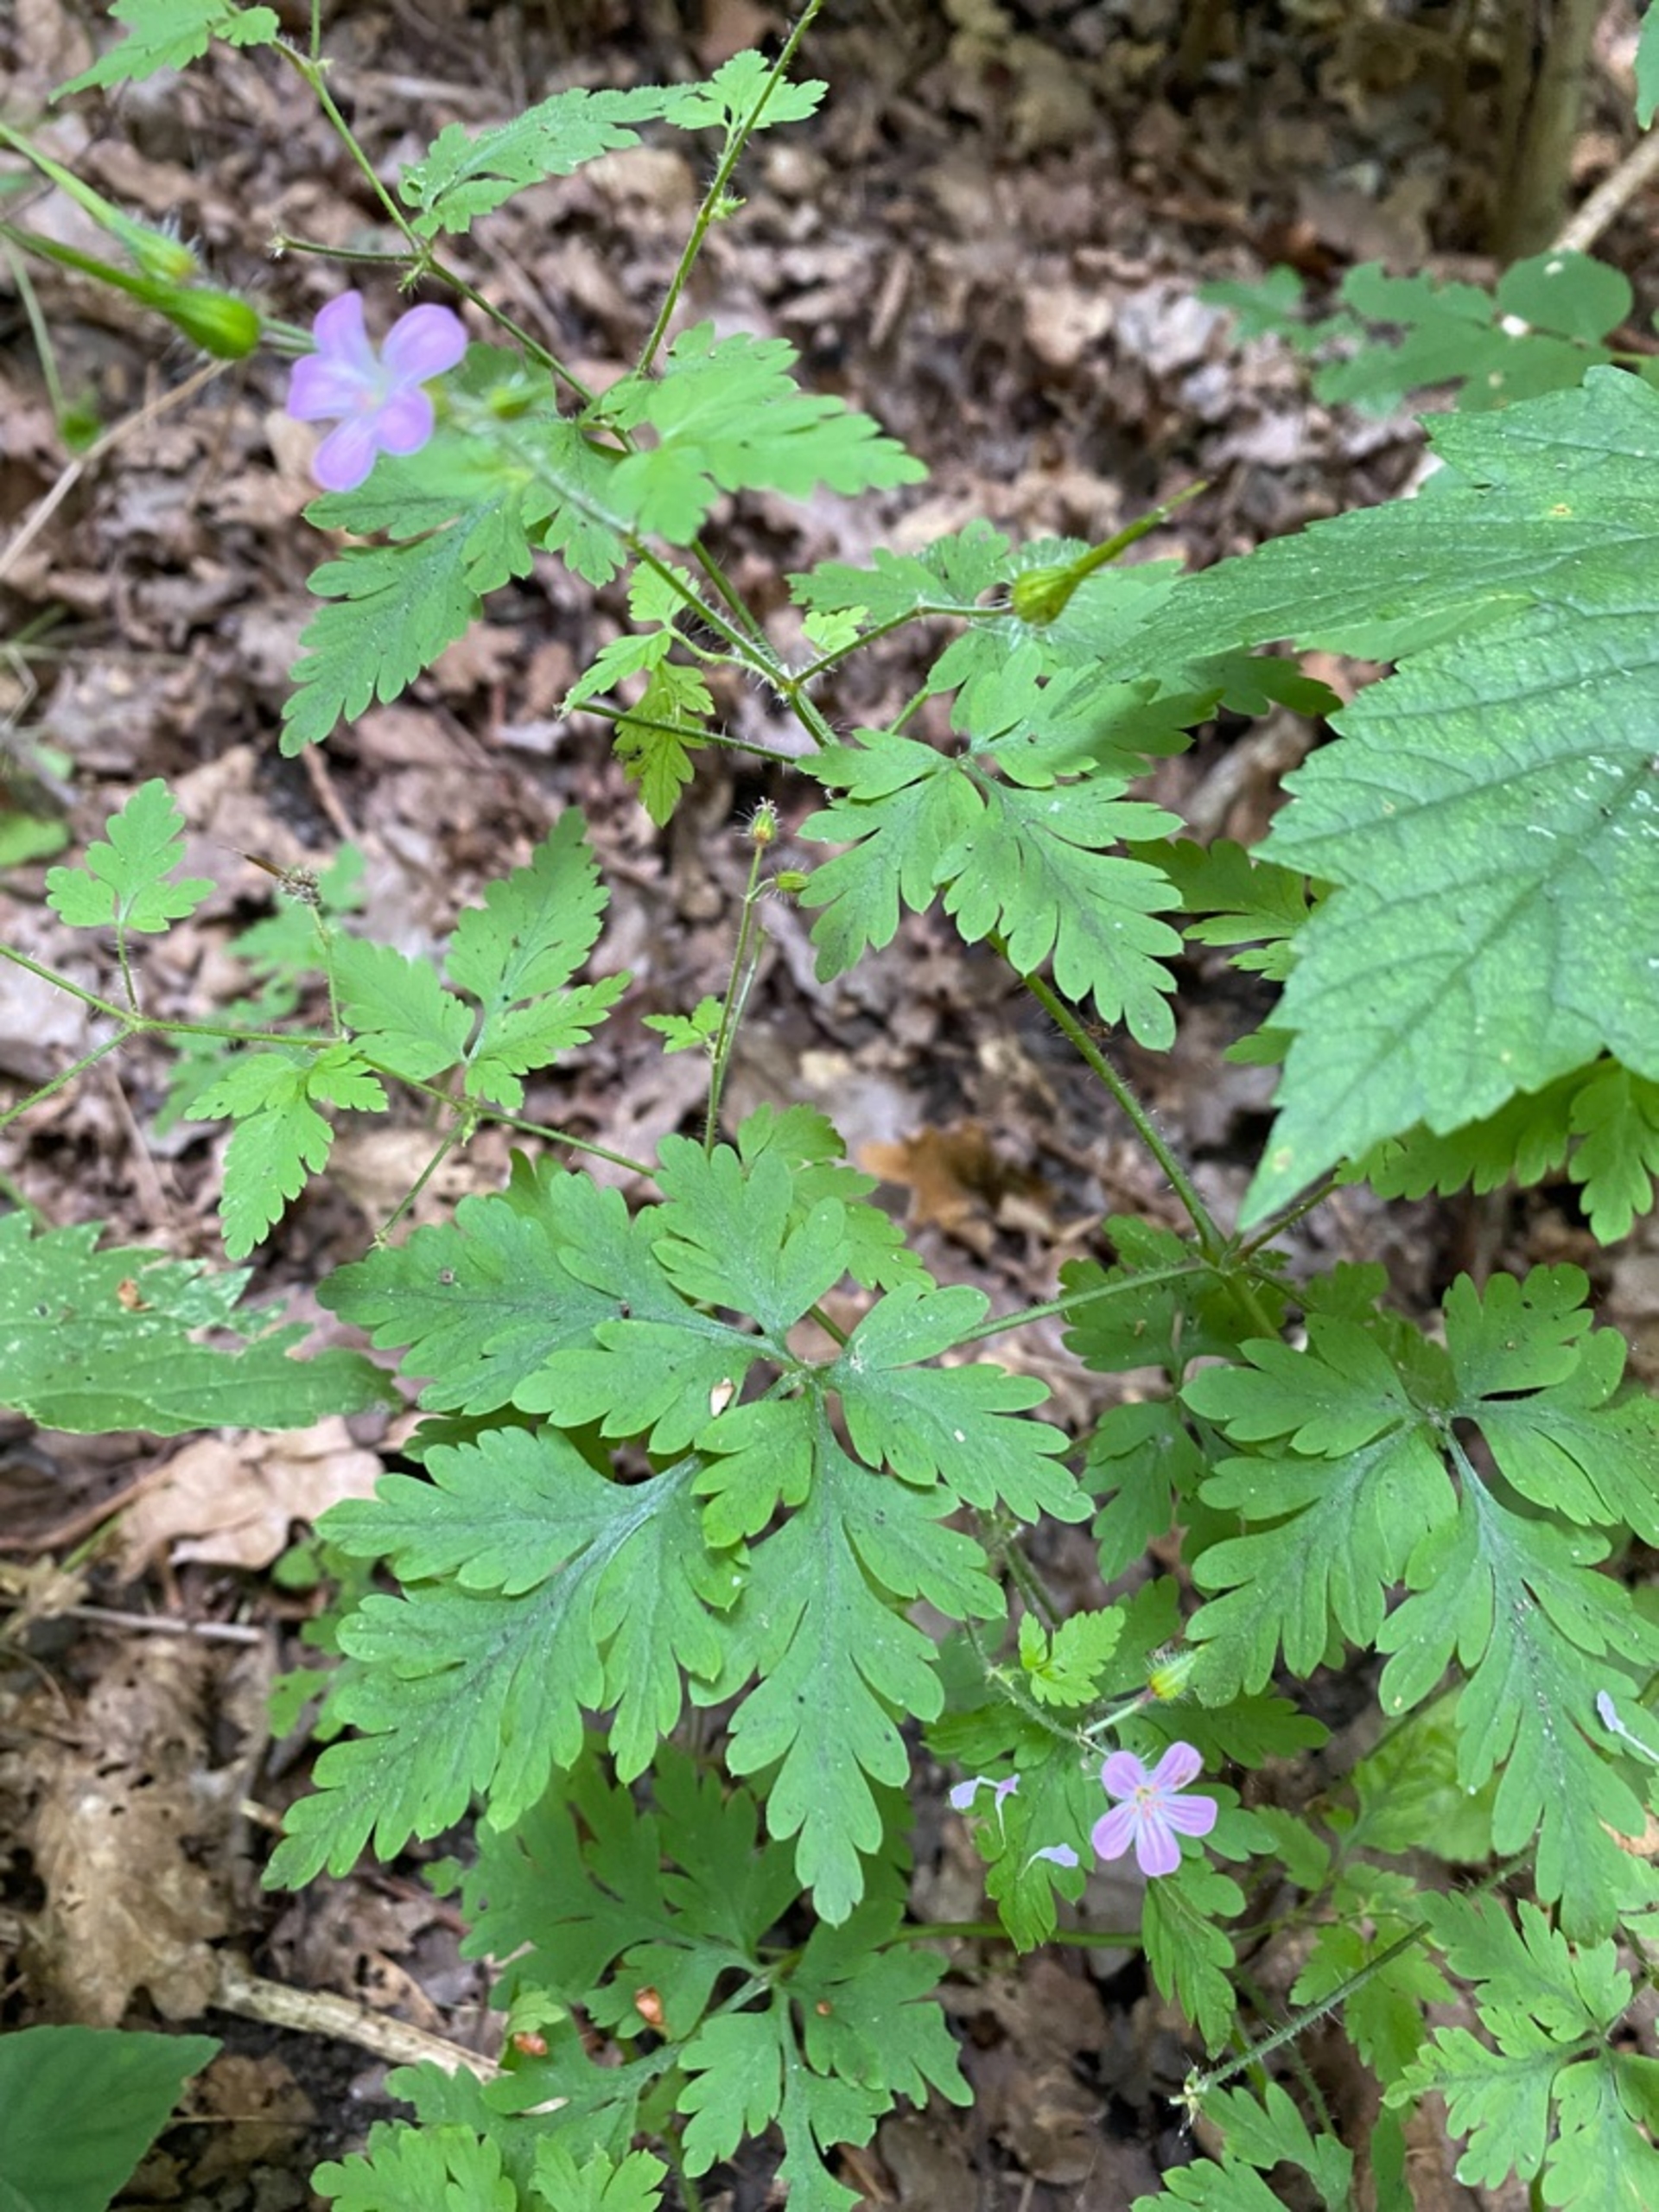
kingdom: Plantae
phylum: Tracheophyta
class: Magnoliopsida
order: Geraniales
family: Geraniaceae
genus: Geranium
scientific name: Geranium robertianum
